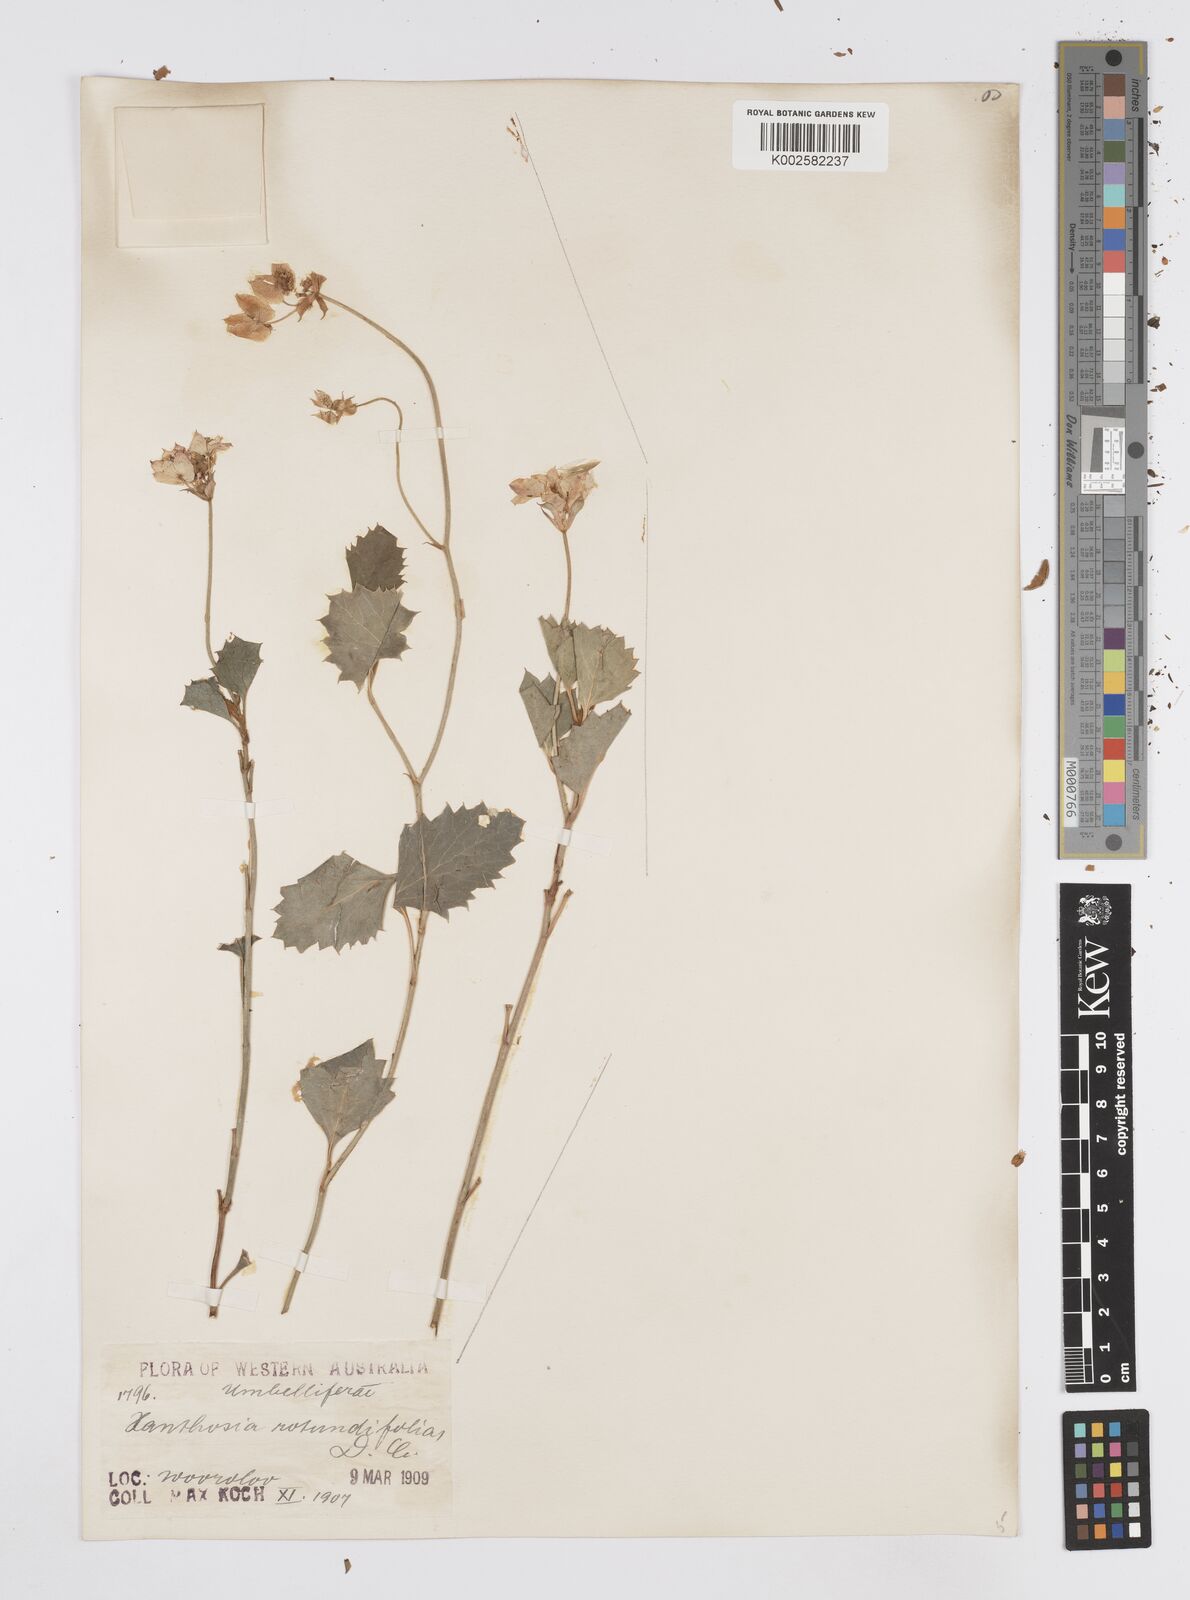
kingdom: Plantae
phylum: Tracheophyta
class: Magnoliopsida
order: Apiales
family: Apiaceae
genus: Xanthosia
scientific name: Xanthosia rotundifolia
